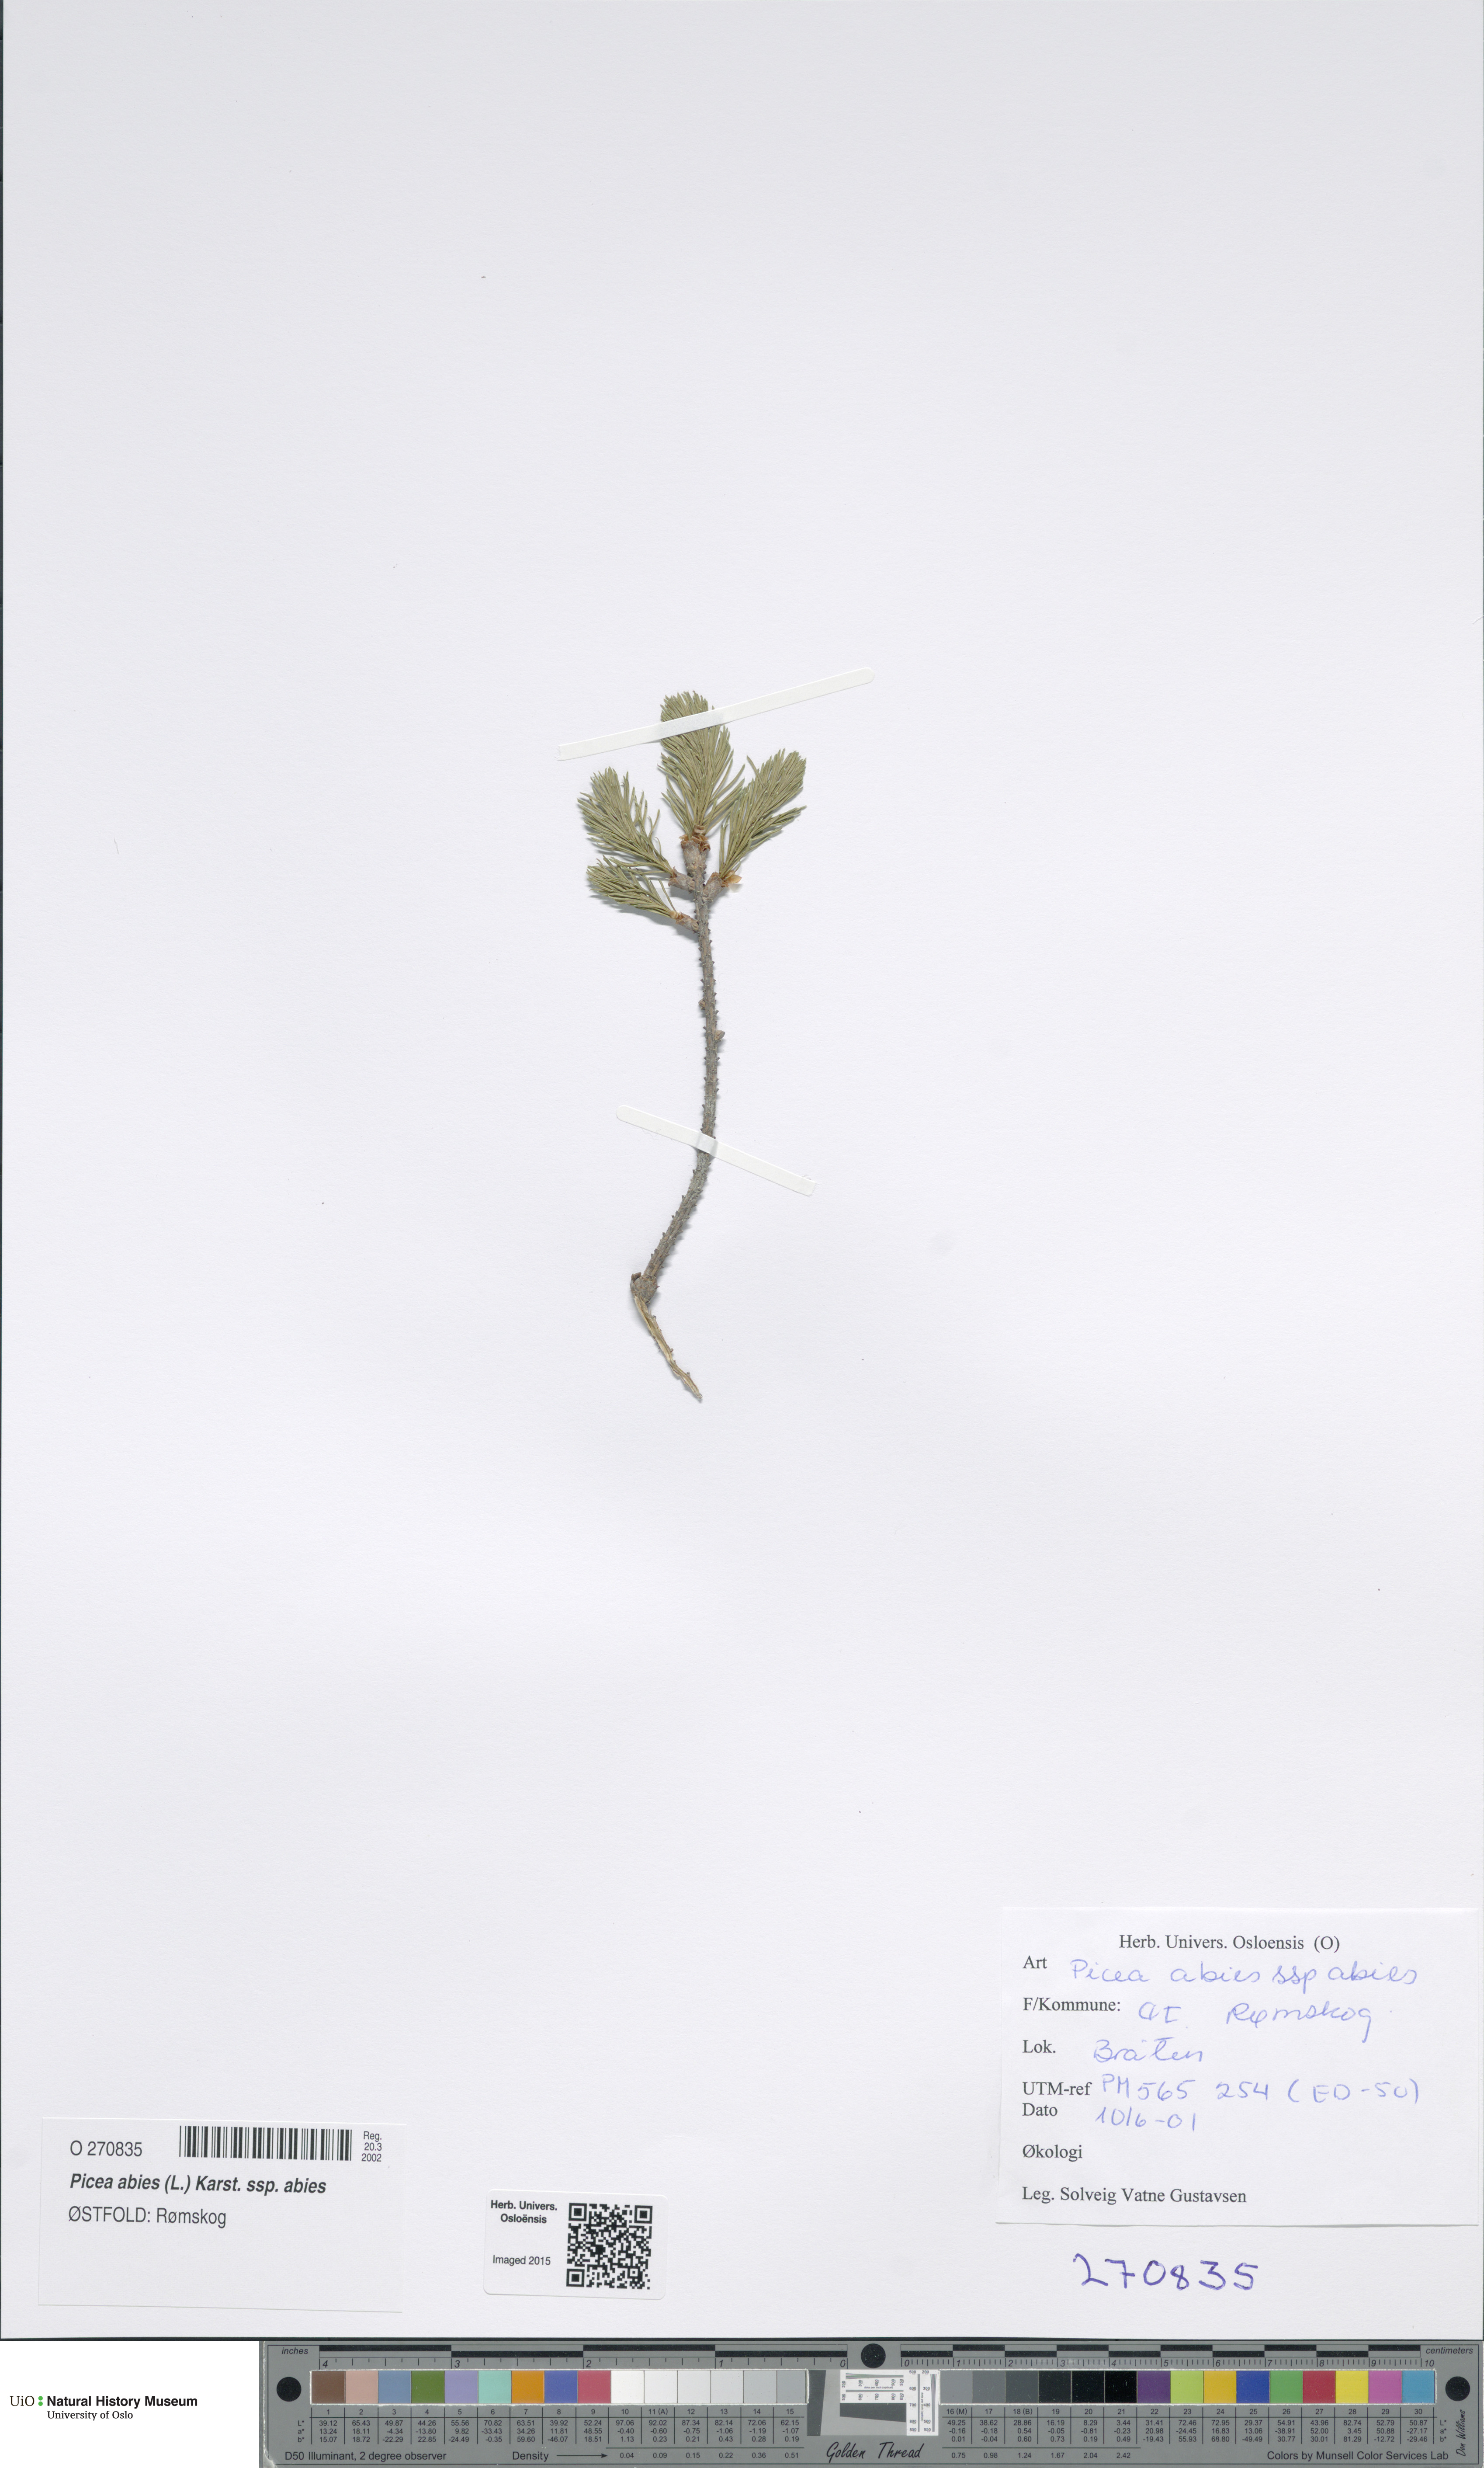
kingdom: Plantae
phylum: Tracheophyta
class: Pinopsida
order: Pinales
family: Pinaceae
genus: Picea
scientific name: Picea abies
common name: Norway spruce
